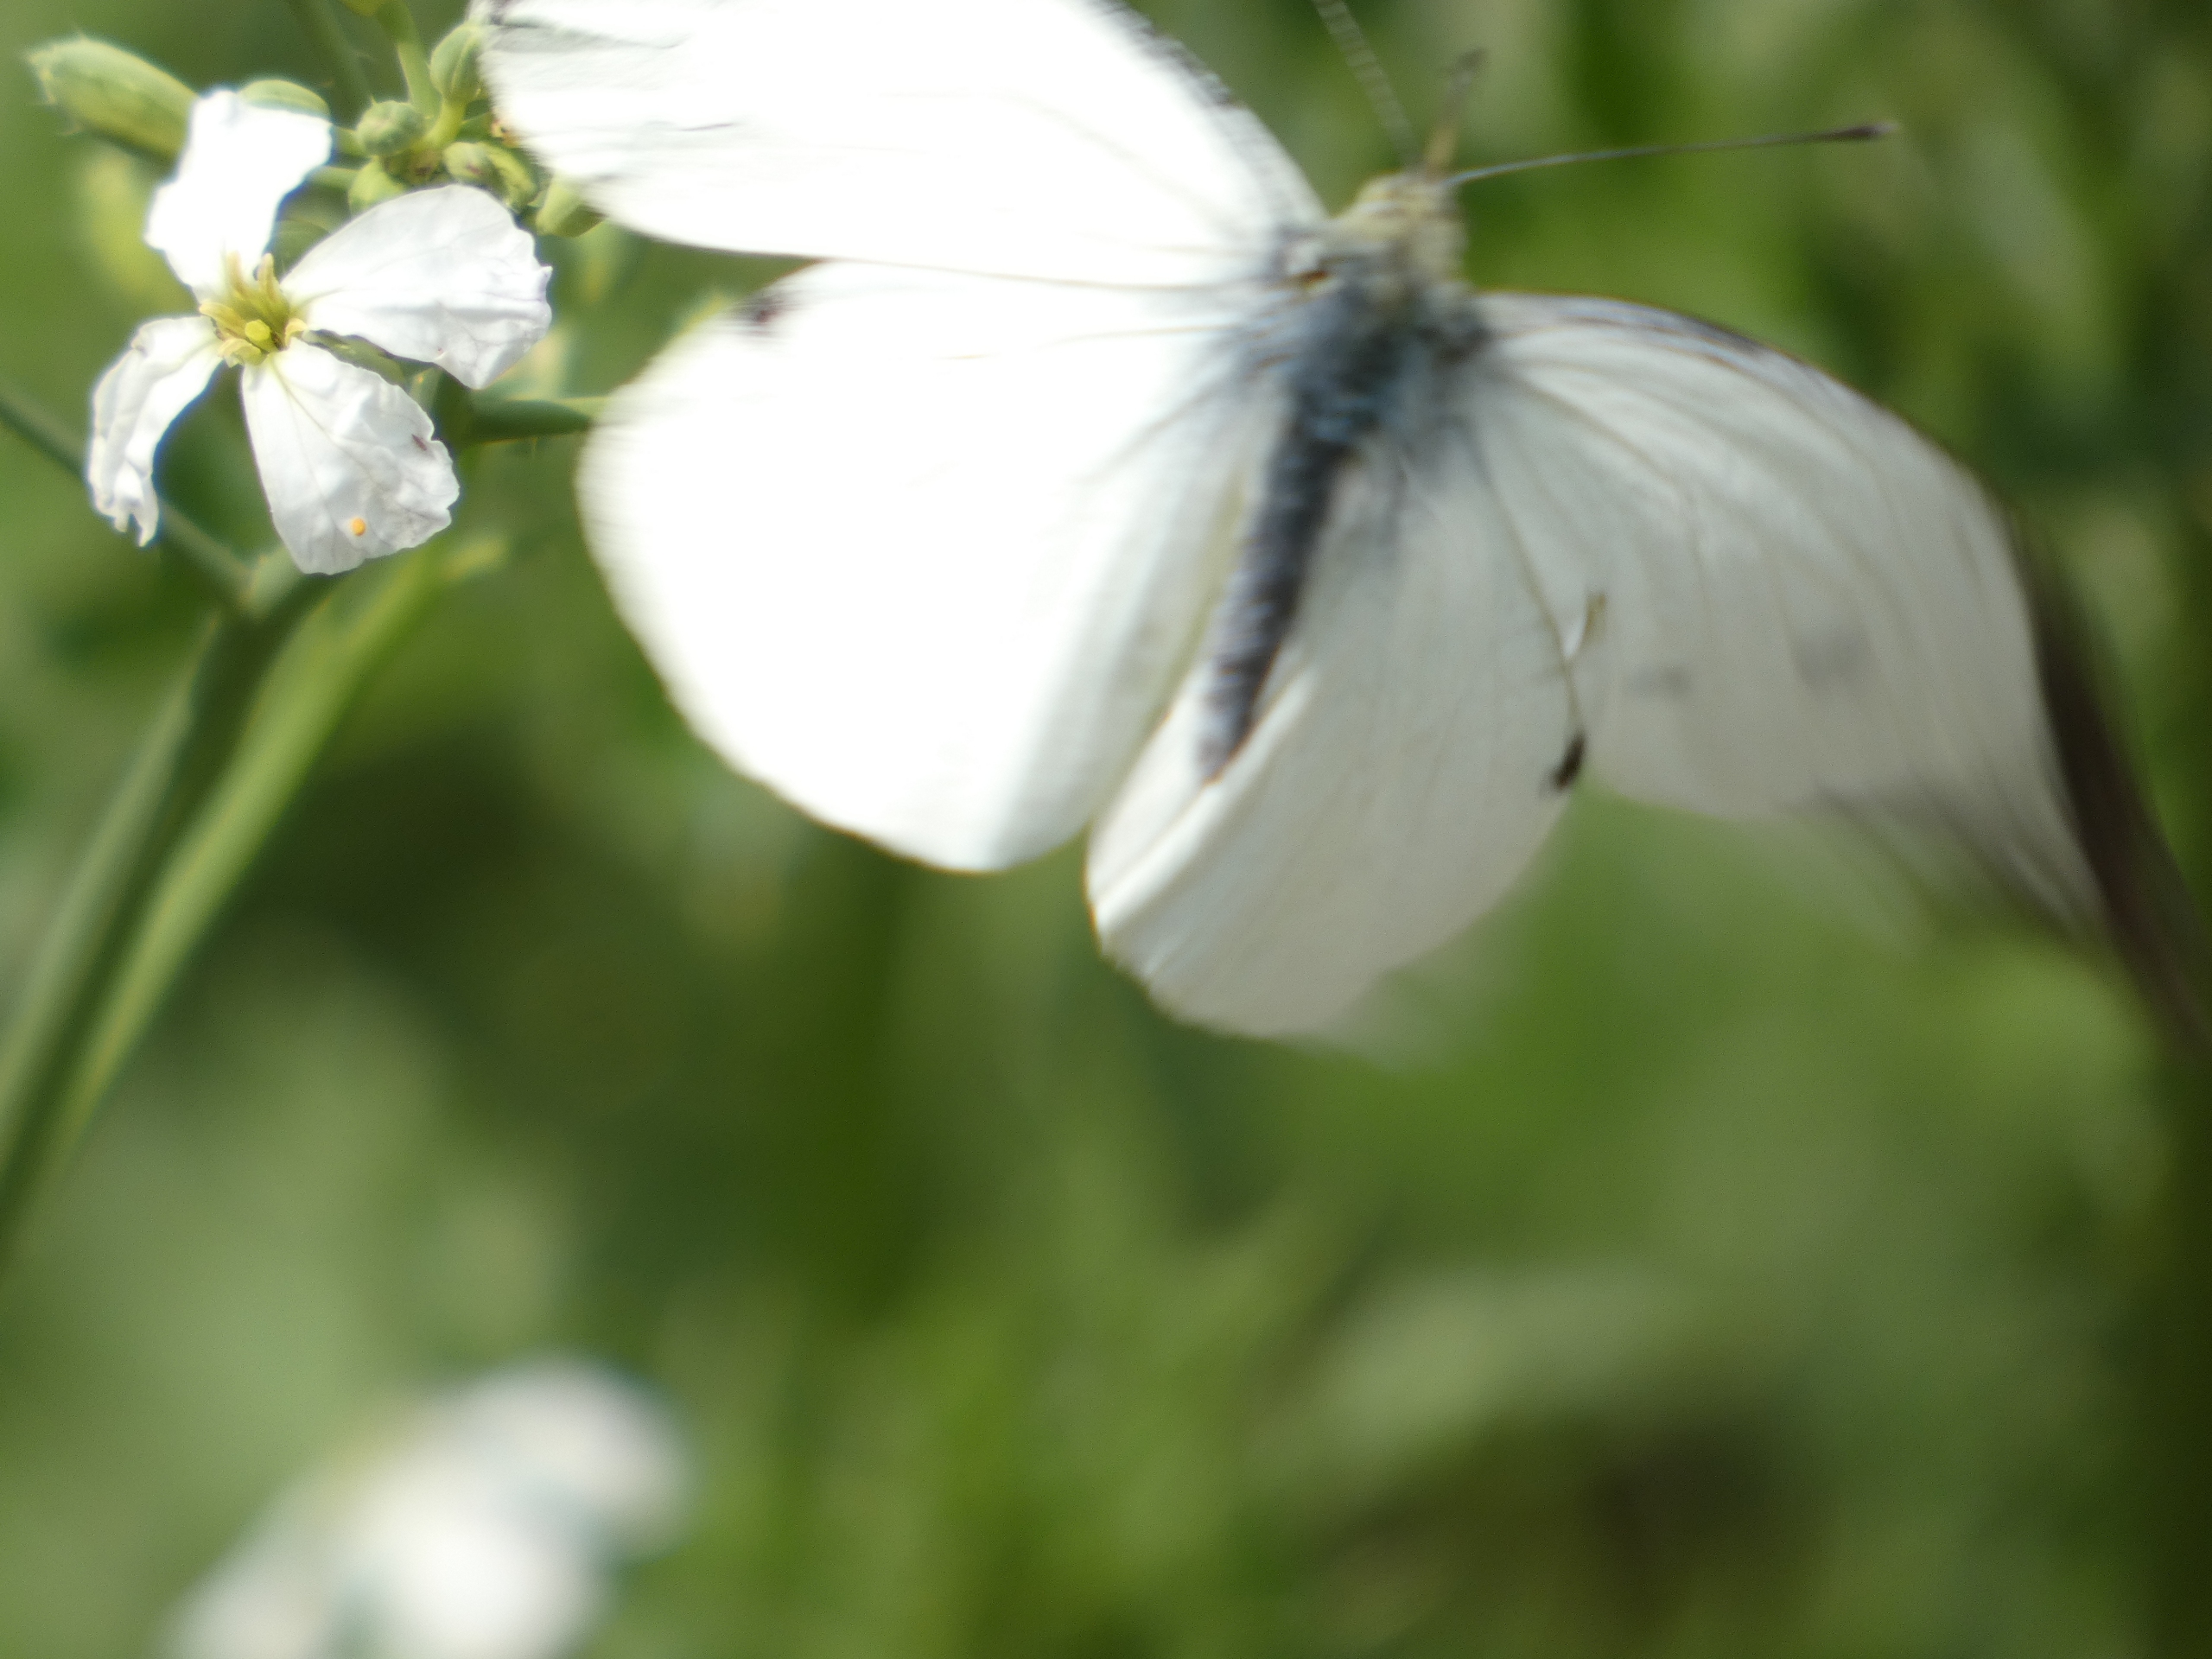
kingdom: Animalia
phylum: Arthropoda
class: Insecta
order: Lepidoptera
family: Pieridae
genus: Pieris
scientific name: Pieris brassicae
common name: Stor kålsommerfugl
